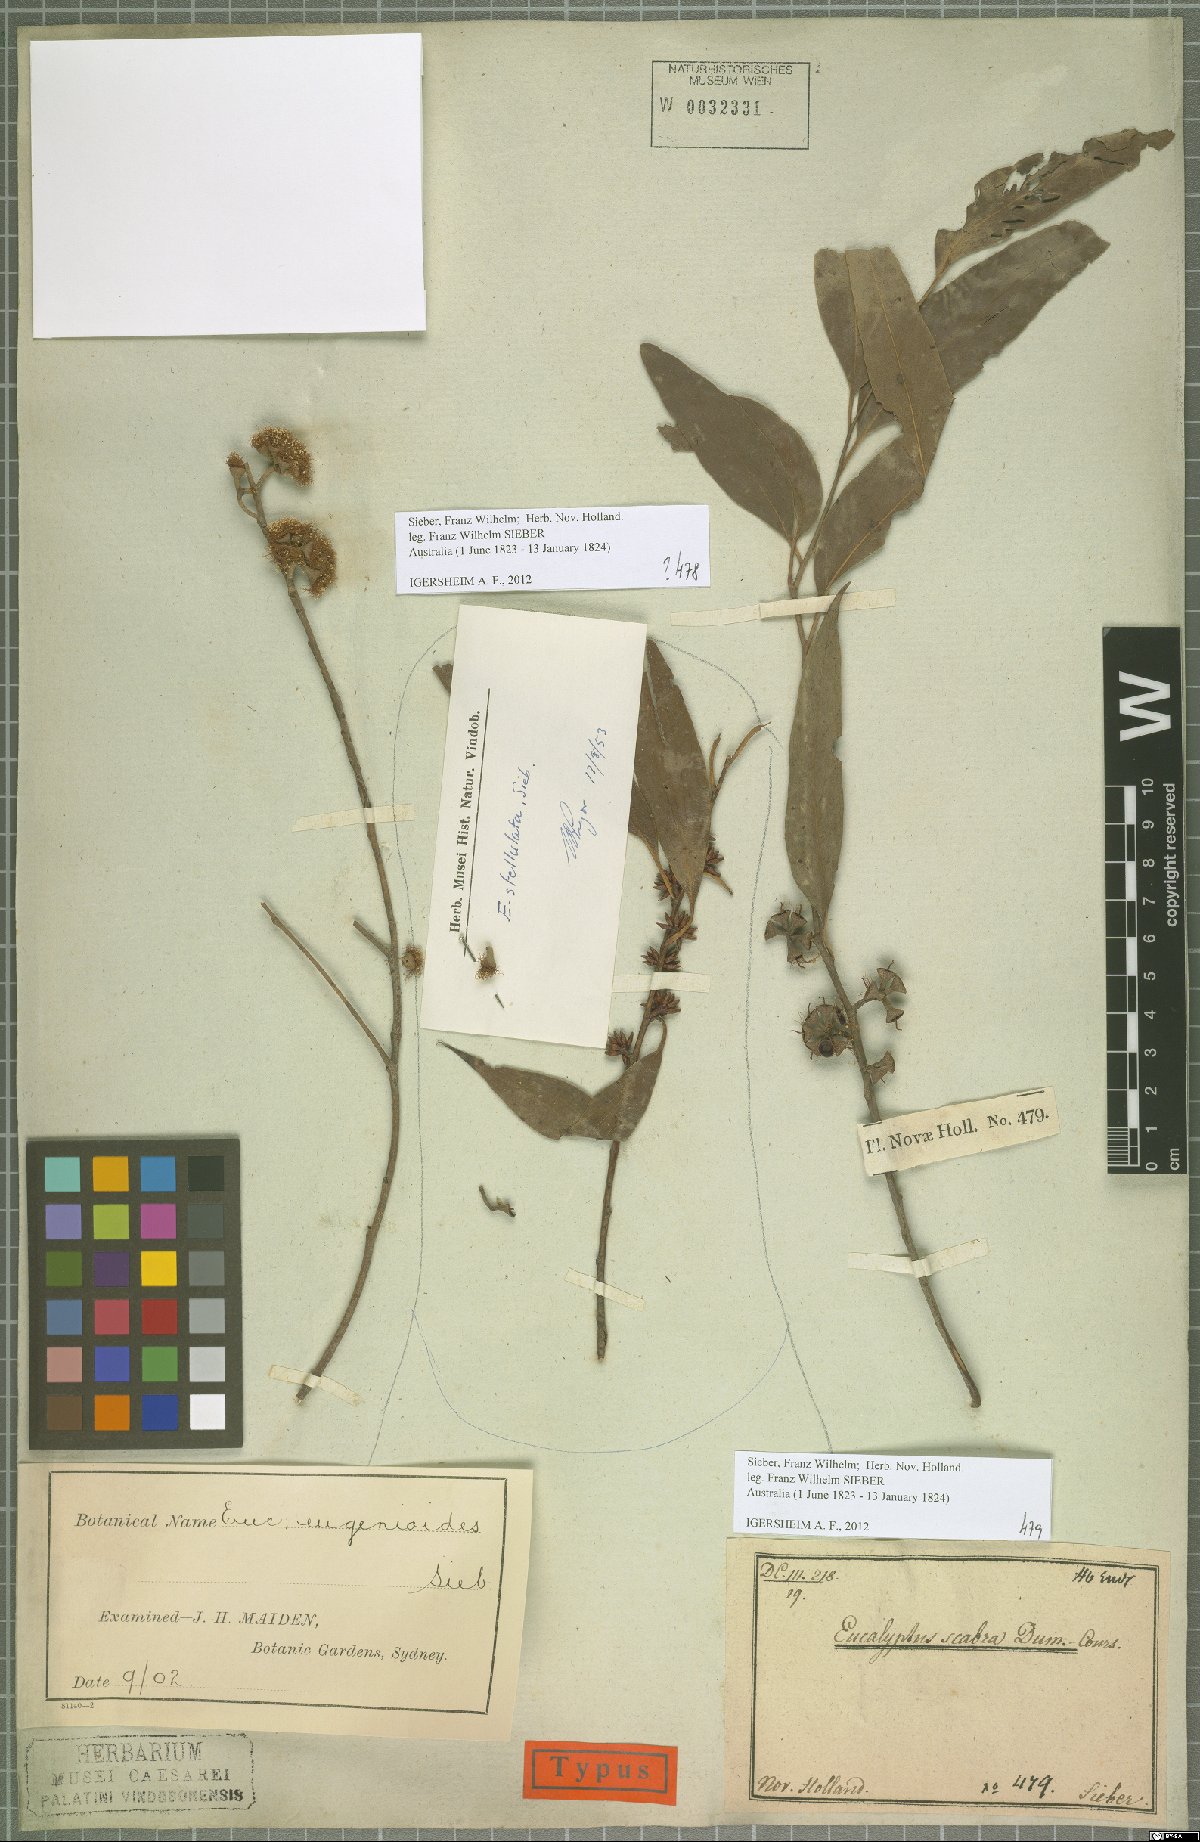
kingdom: Plantae
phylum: Tracheophyta
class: Magnoliopsida
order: Myrtales
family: Myrtaceae
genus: Eucalyptus
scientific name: Eucalyptus eugenioides
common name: Narrow-leaved-stringybark
